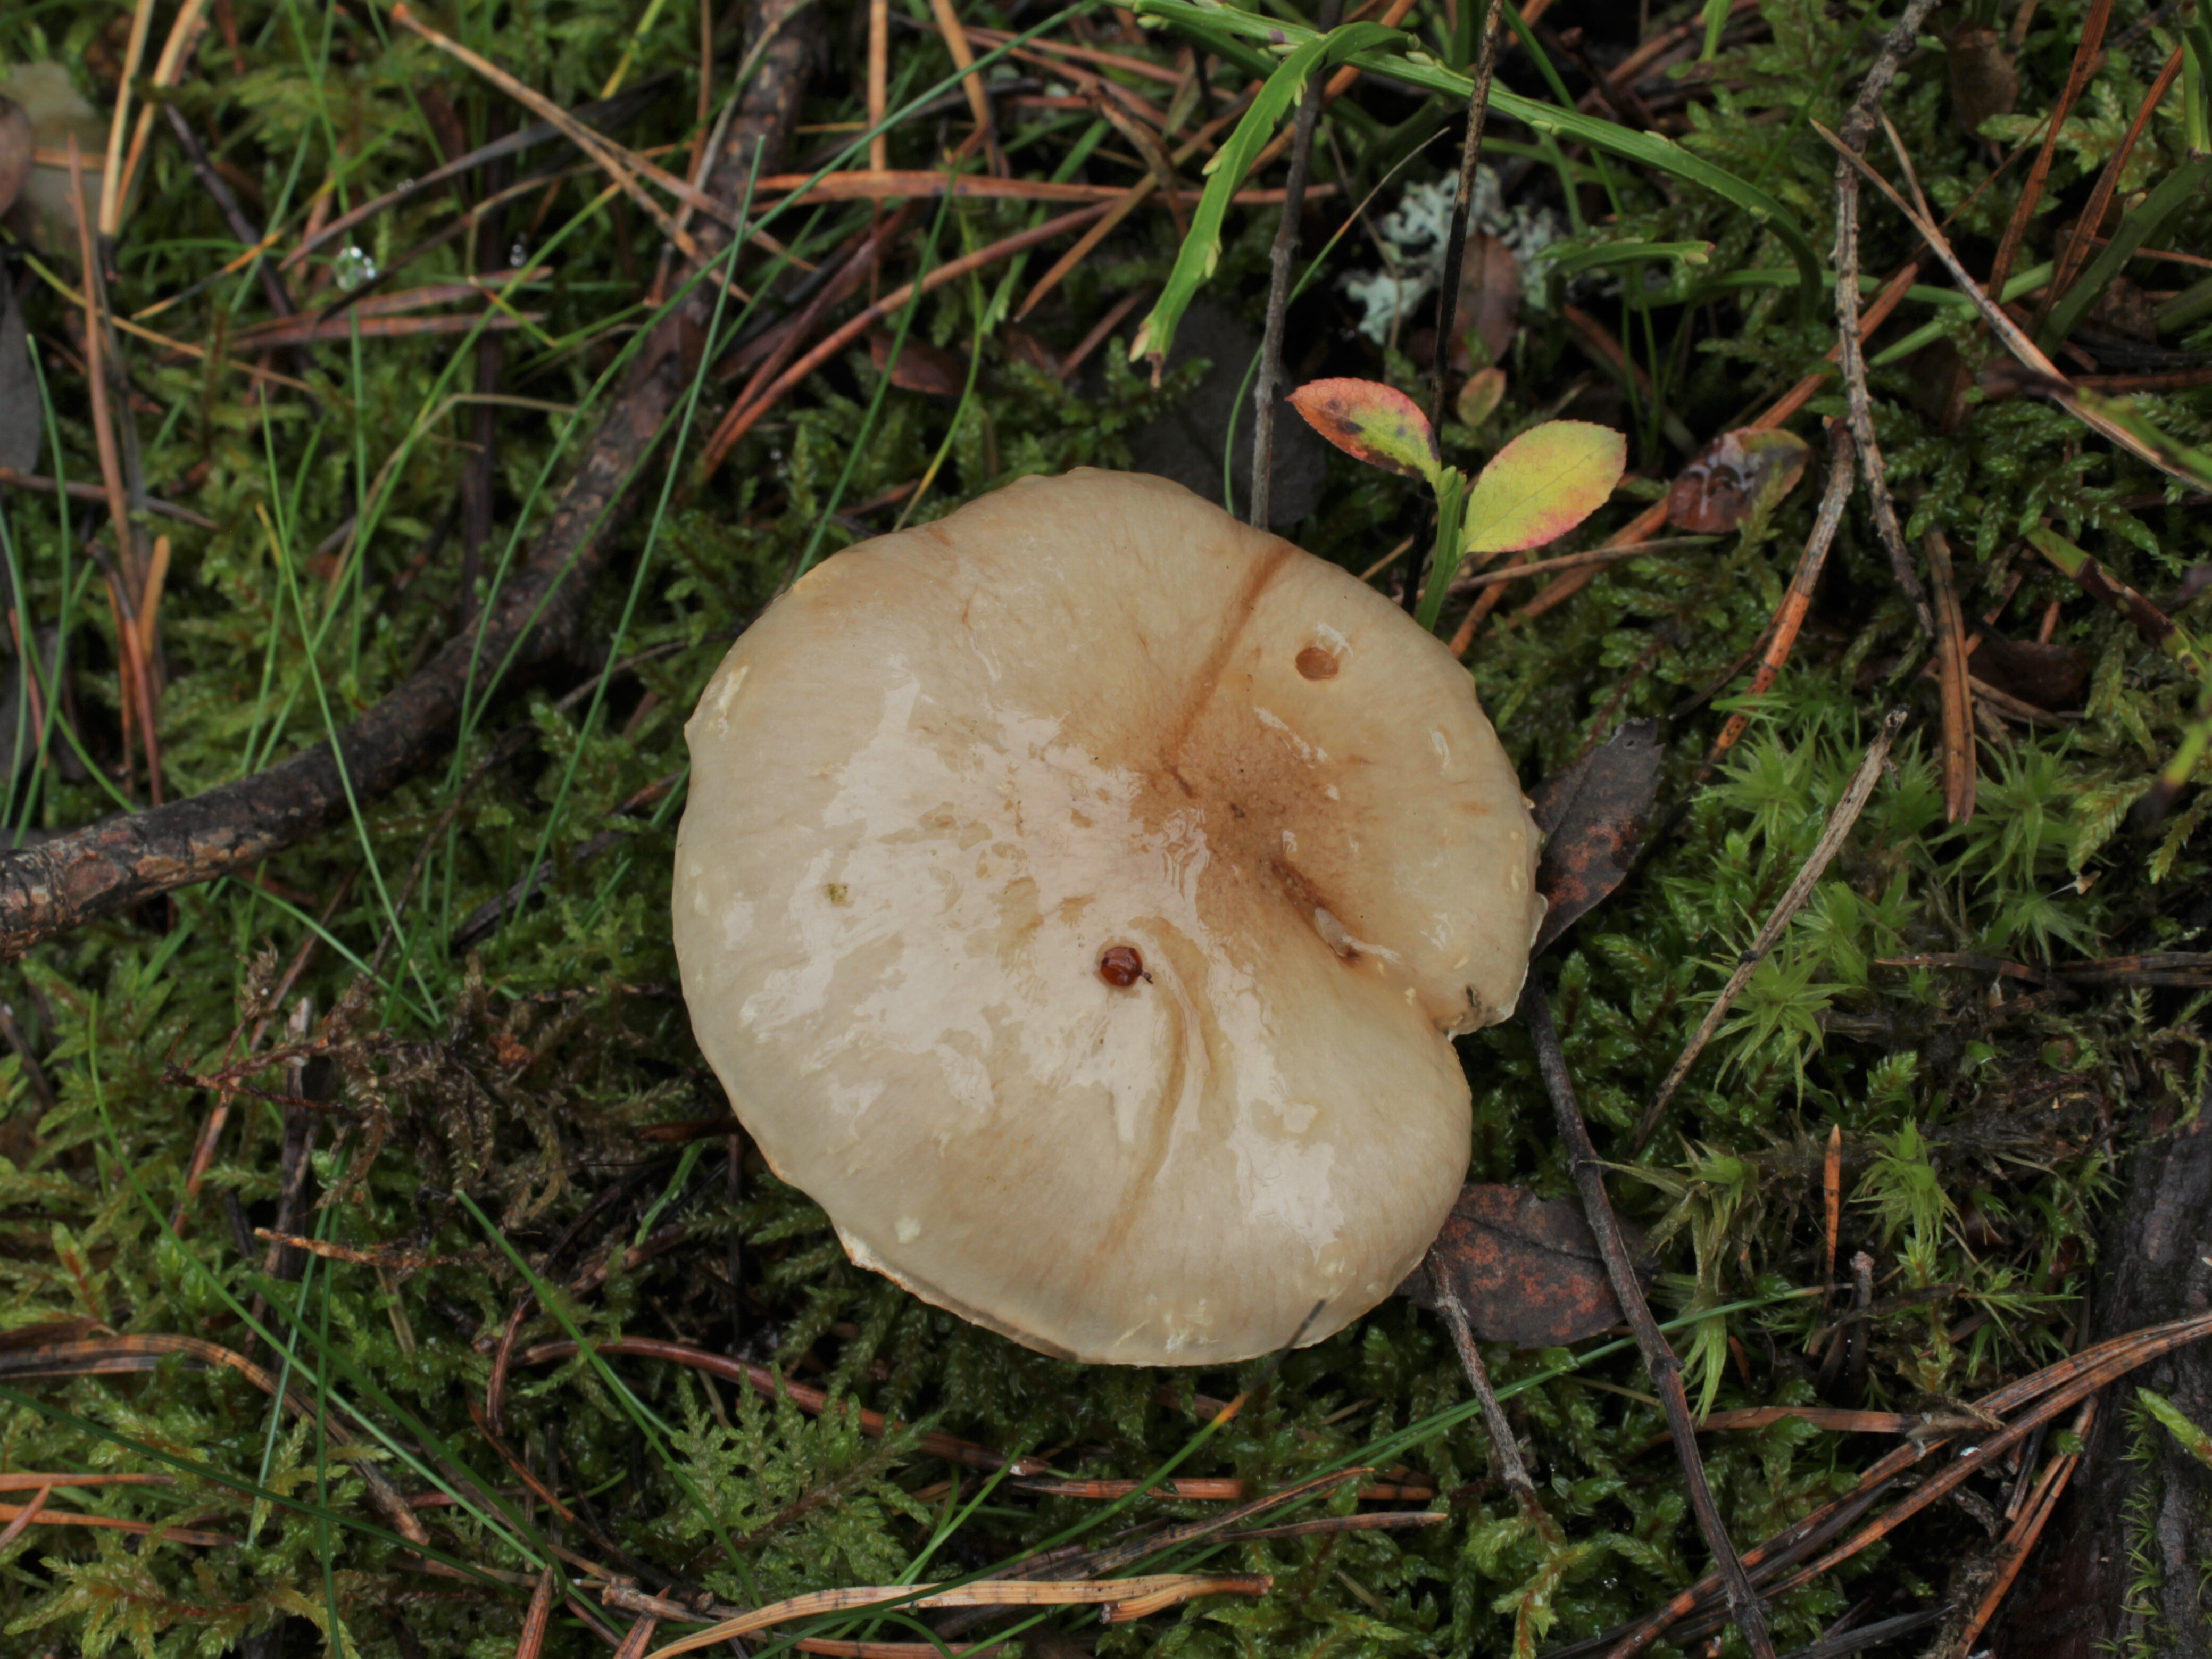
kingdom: Fungi
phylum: Basidiomycota
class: Agaricomycetes
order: Agaricales
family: Strophariaceae
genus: Pholiota
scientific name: Pholiota lenta
